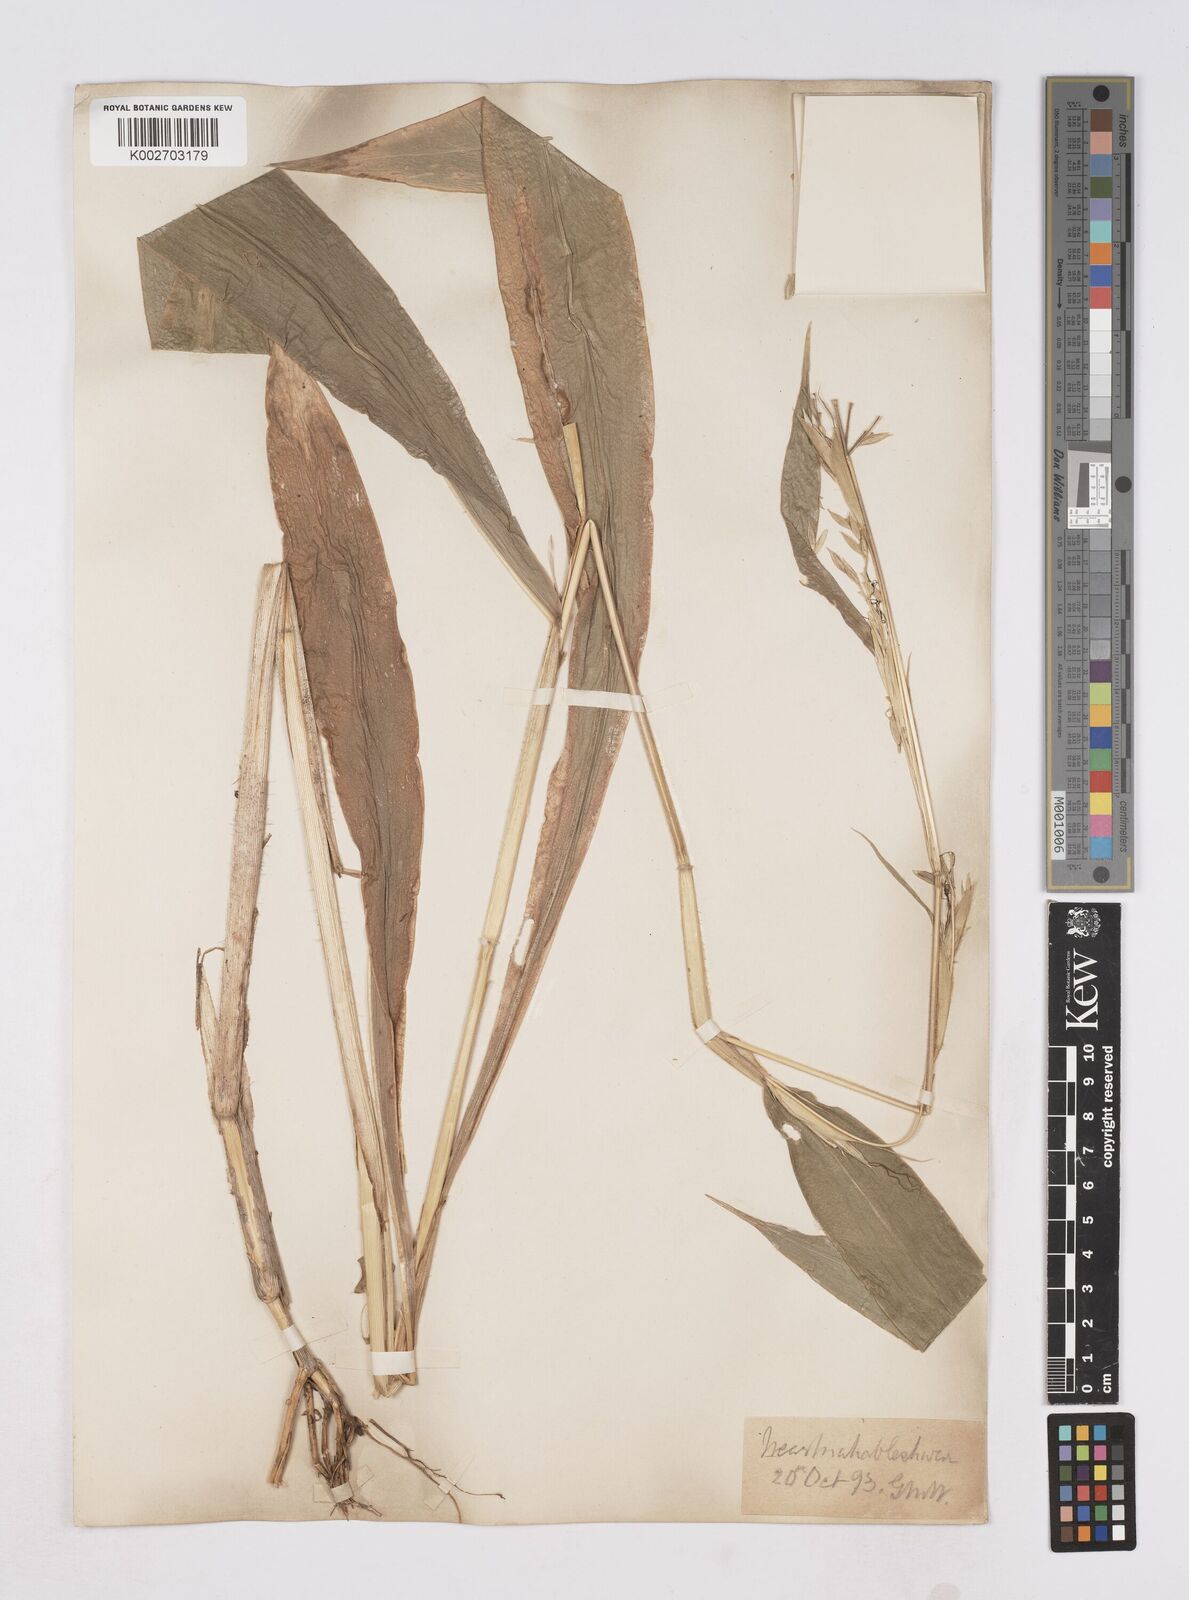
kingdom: Plantae
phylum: Tracheophyta
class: Liliopsida
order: Poales
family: Poaceae
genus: Trilobachne
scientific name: Trilobachne cookei
